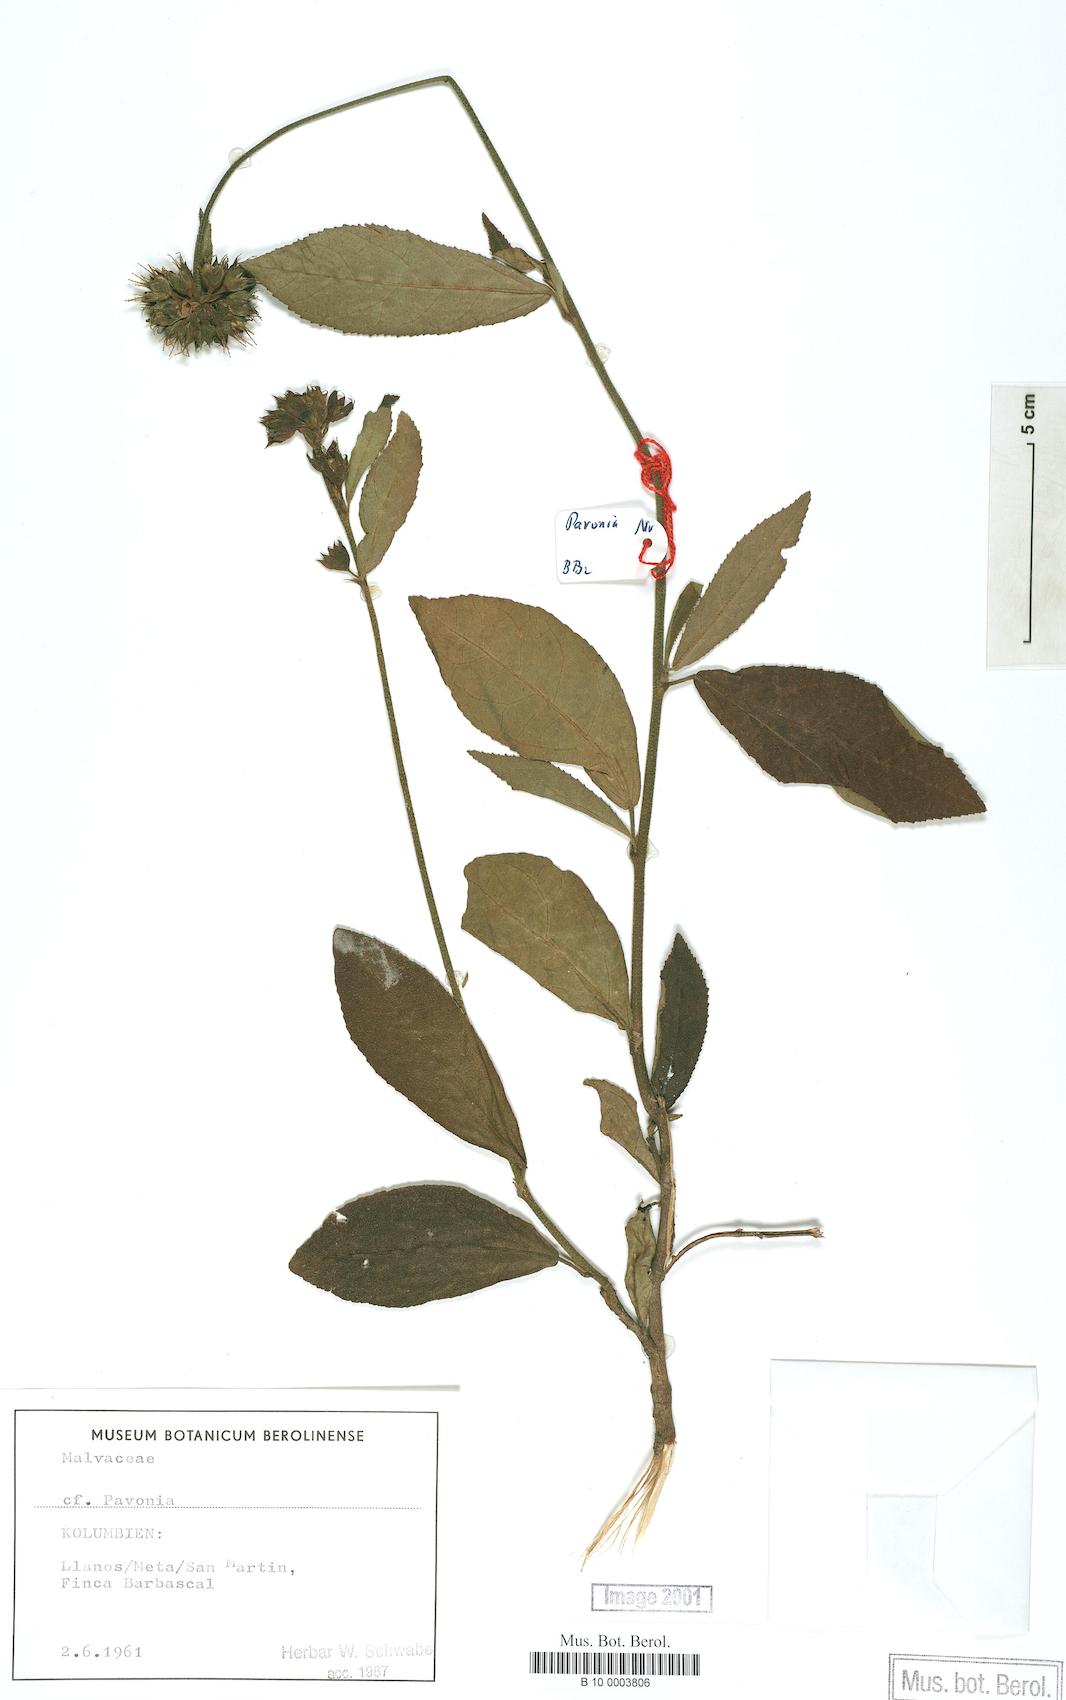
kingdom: Plantae
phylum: Tracheophyta
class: Magnoliopsida
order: Malvales
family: Malvaceae
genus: Pavonia
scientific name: Pavonia
